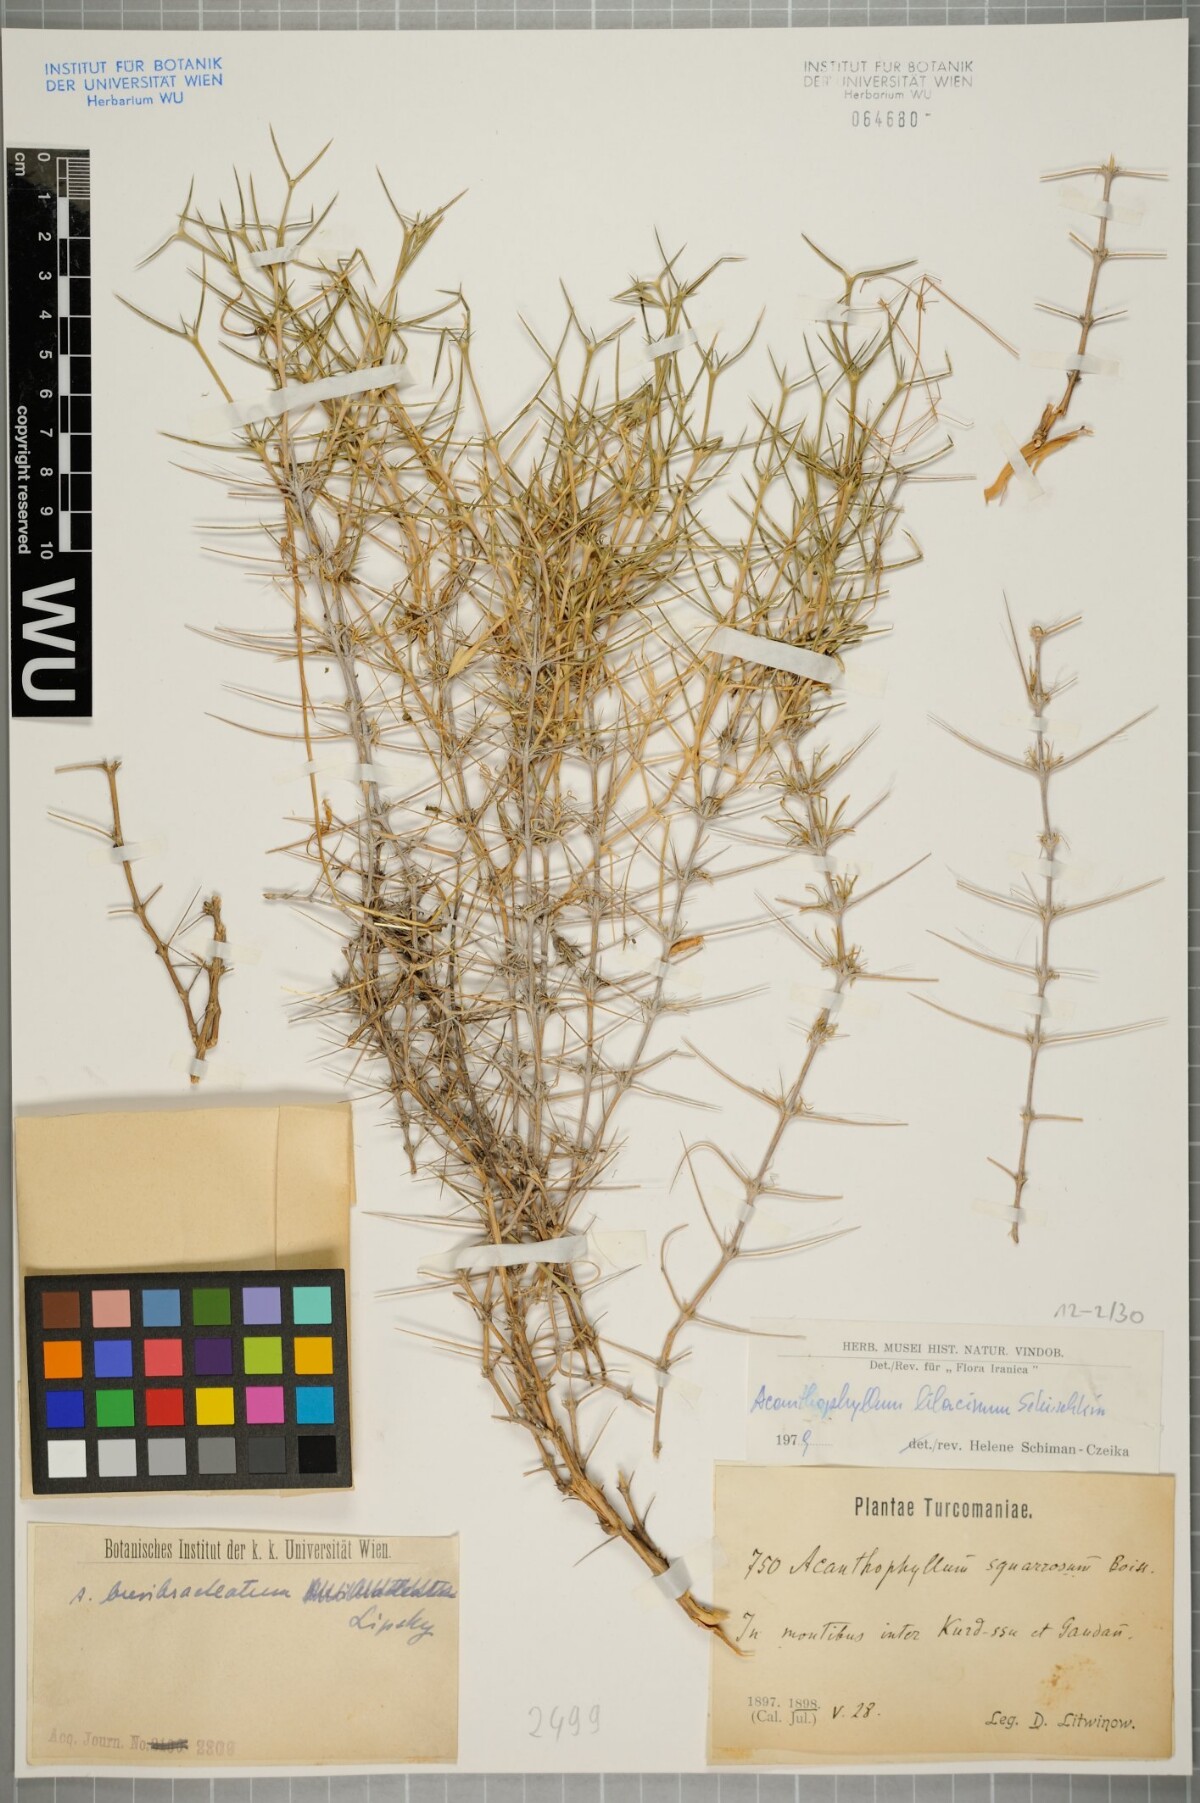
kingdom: Plantae
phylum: Tracheophyta
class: Magnoliopsida
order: Caryophyllales
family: Caryophyllaceae
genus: Acanthophyllum
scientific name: Acanthophyllum lilacinum
